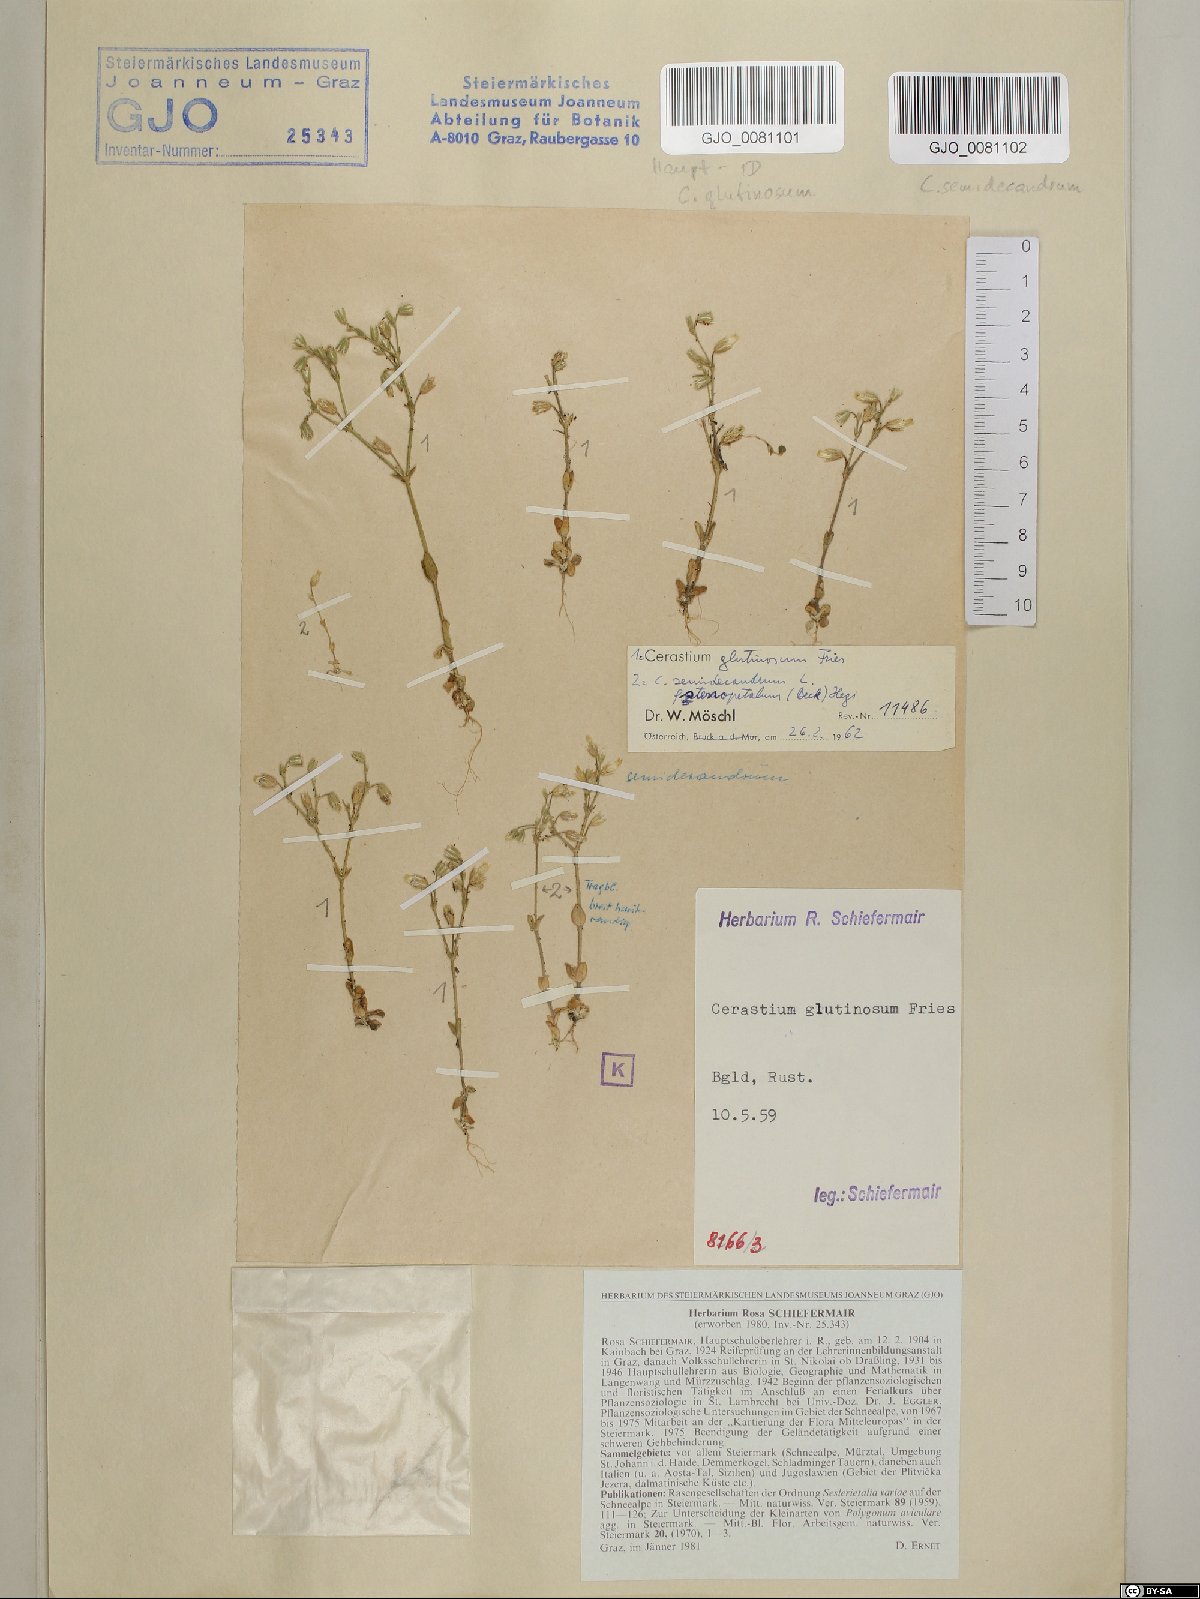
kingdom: Plantae
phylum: Tracheophyta
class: Magnoliopsida
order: Caryophyllales
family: Caryophyllaceae
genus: Cerastium
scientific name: Cerastium glutinosum
